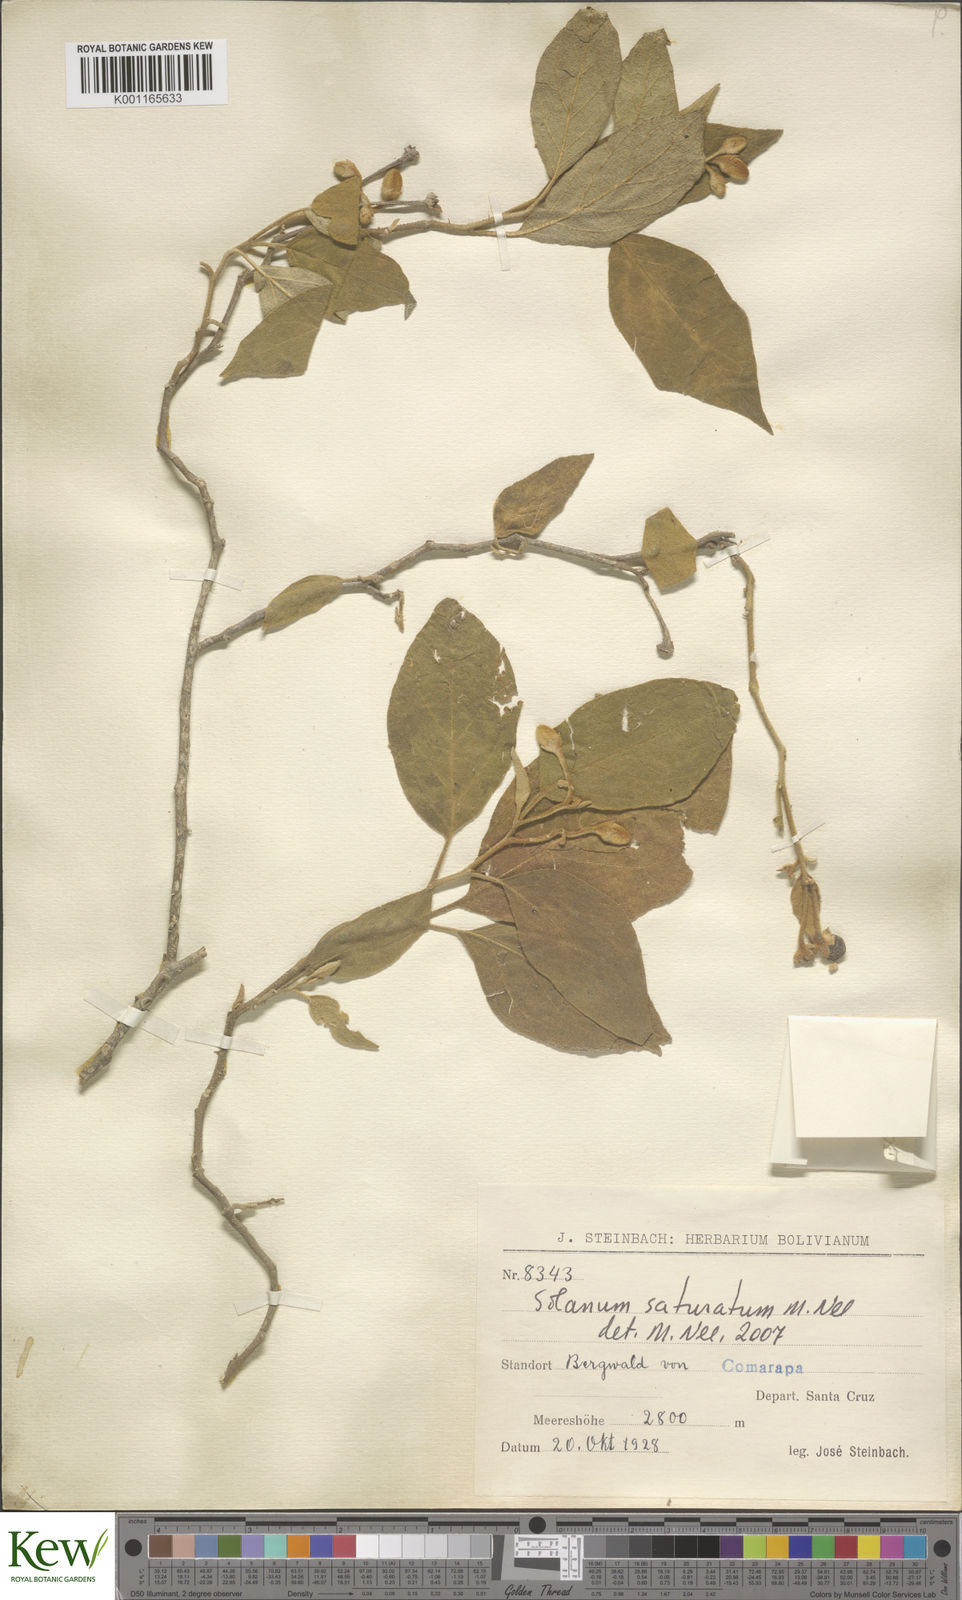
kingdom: Plantae
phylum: Tracheophyta
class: Magnoliopsida
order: Solanales
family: Solanaceae
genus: Solanum
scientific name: Solanum saturatum
